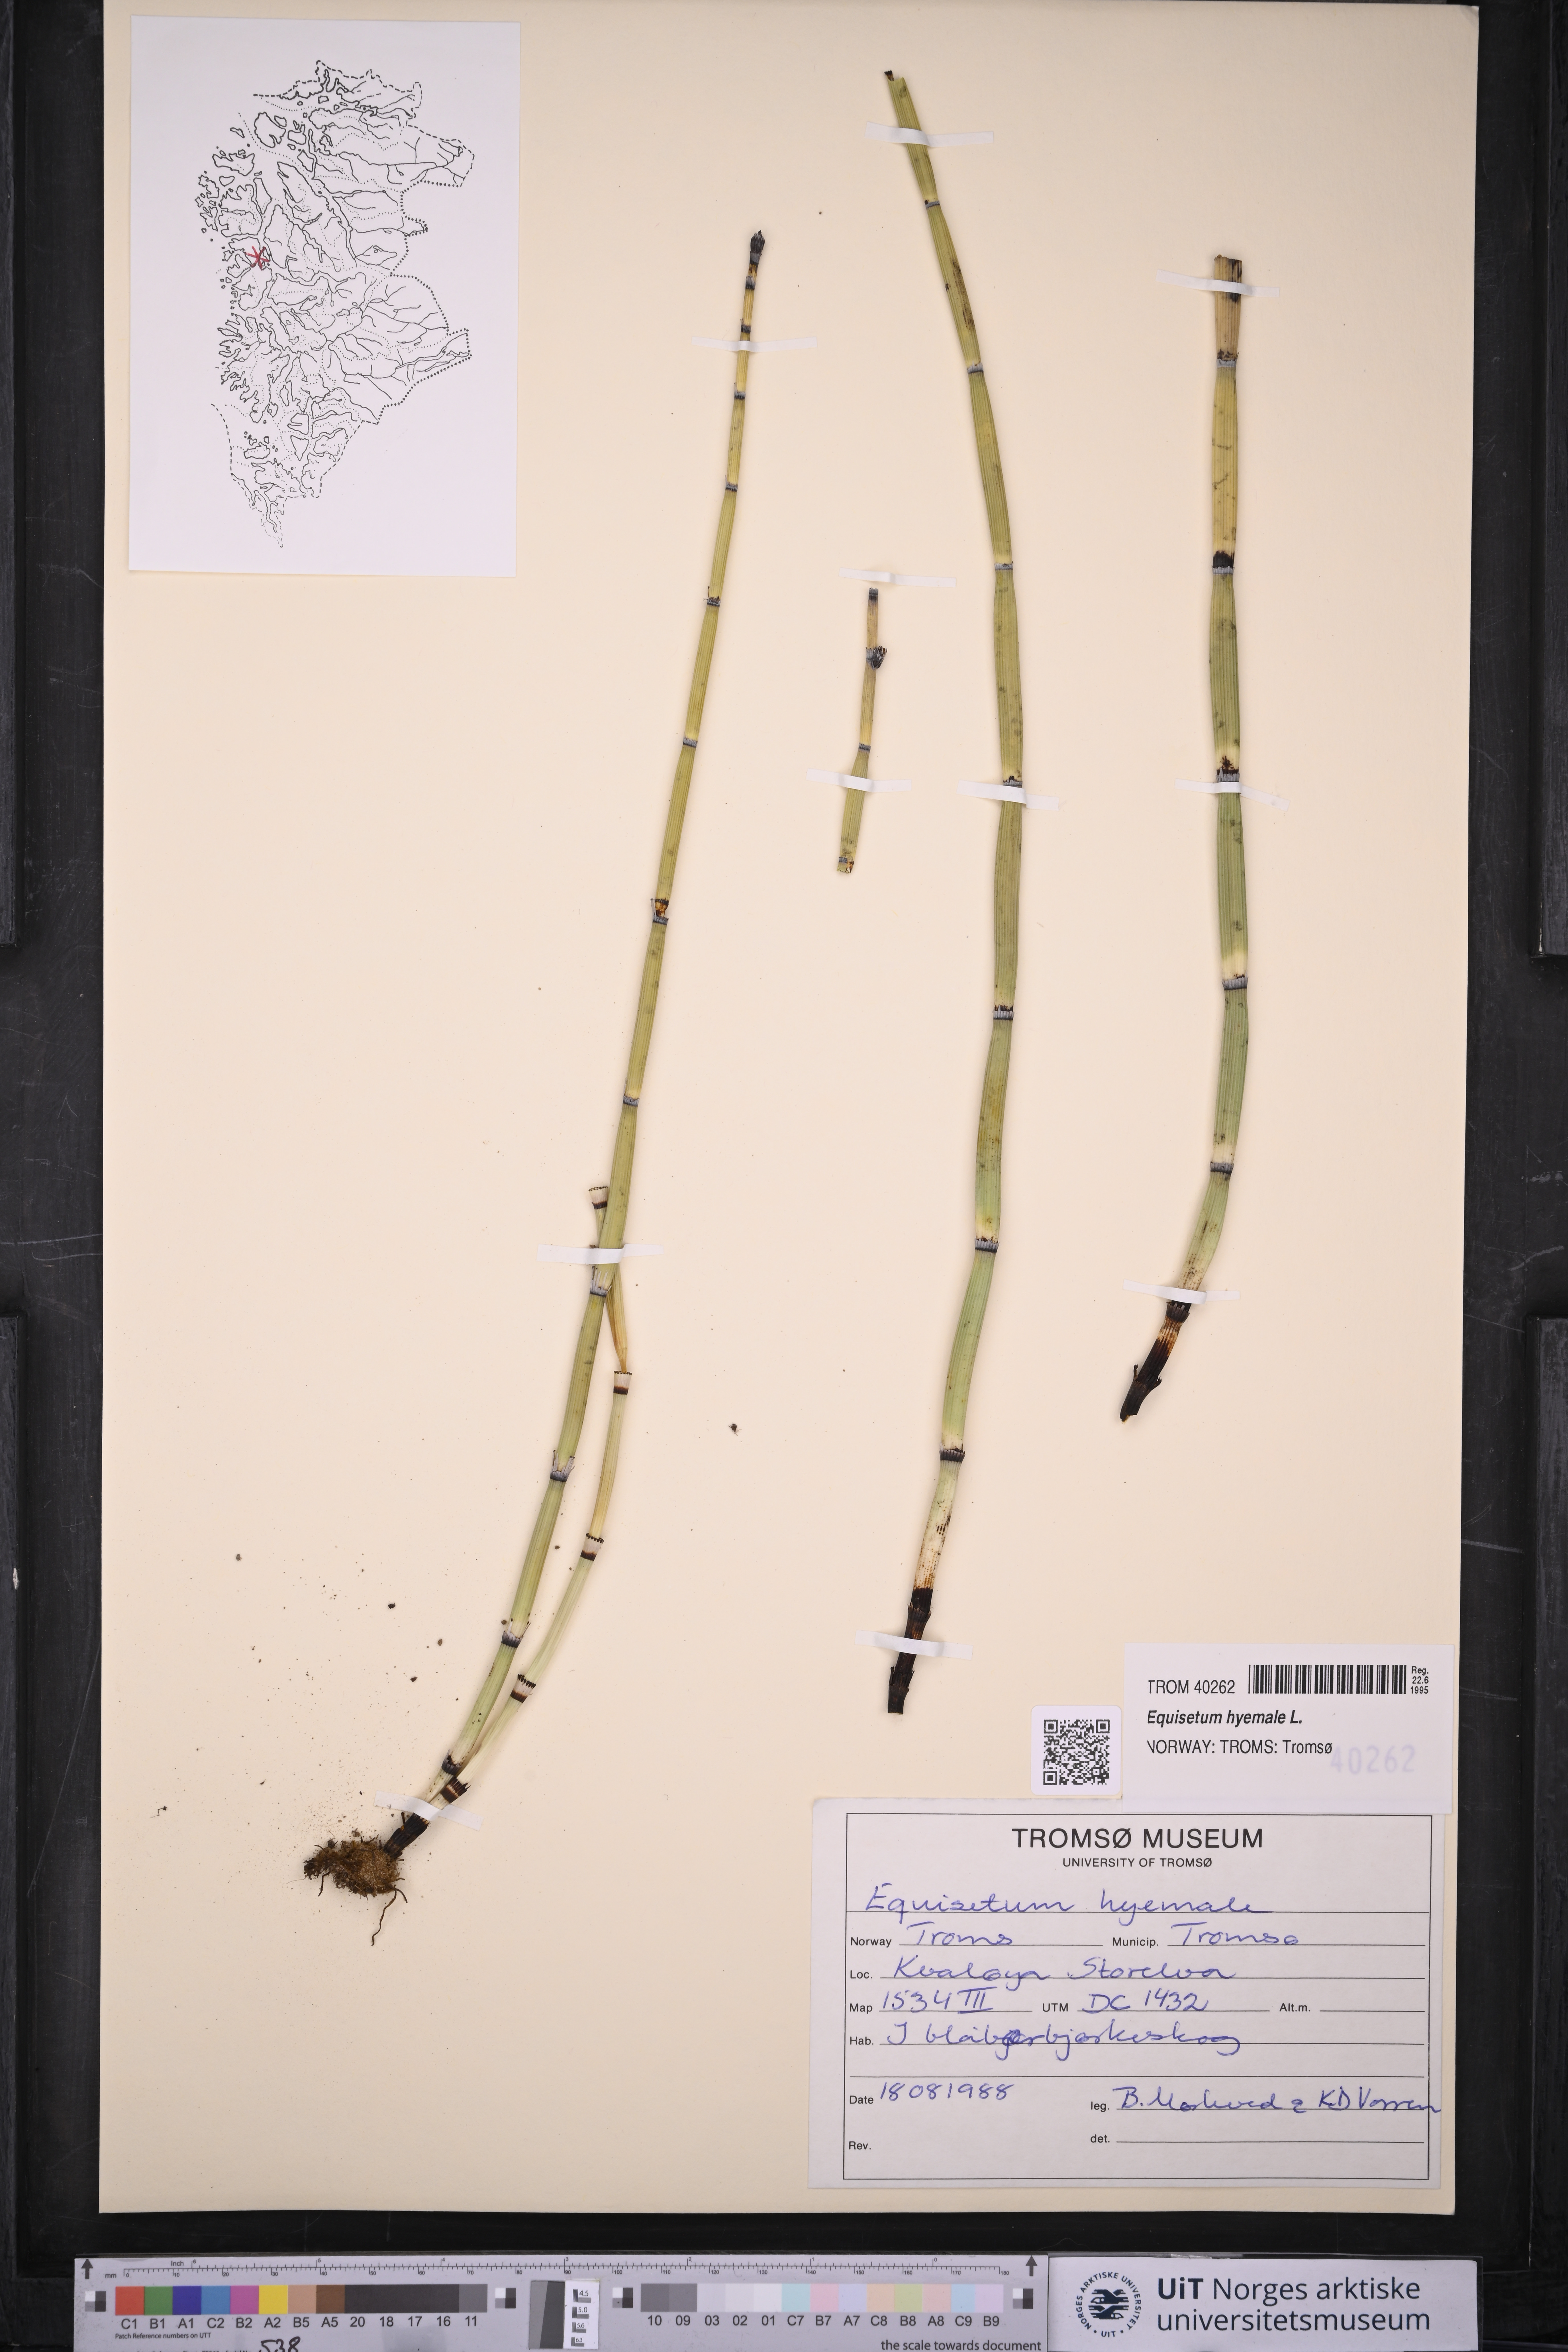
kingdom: Plantae
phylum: Tracheophyta
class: Polypodiopsida
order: Equisetales
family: Equisetaceae
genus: Equisetum
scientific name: Equisetum hyemale
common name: Rough horsetail
